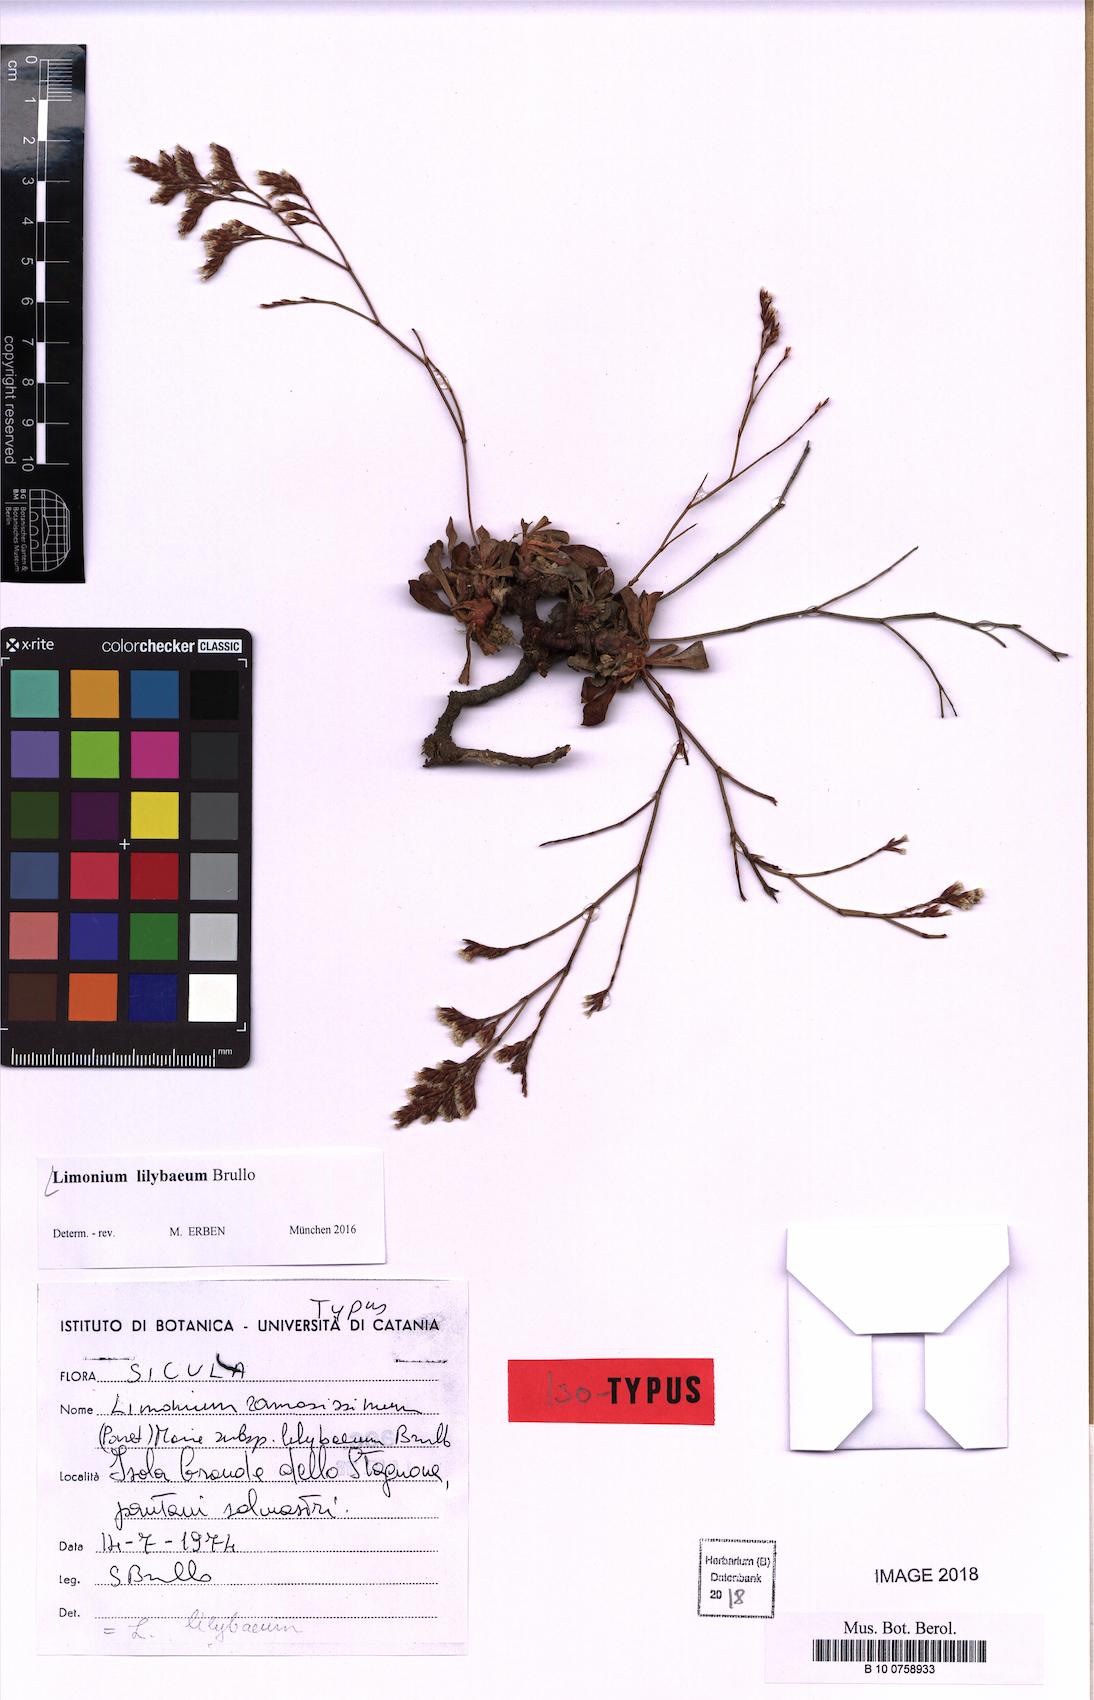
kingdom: Plantae
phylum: Tracheophyta
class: Magnoliopsida
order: Caryophyllales
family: Plumbaginaceae
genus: Limonium
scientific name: Limonium lilybaeum
